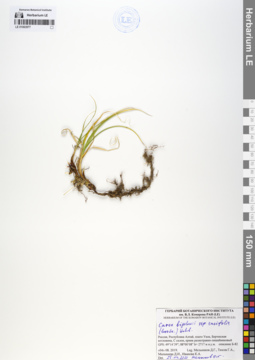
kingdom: Plantae
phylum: Tracheophyta
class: Liliopsida
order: Poales
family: Cyperaceae
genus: Carex
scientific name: Carex bigelowii
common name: Stiff sedge
